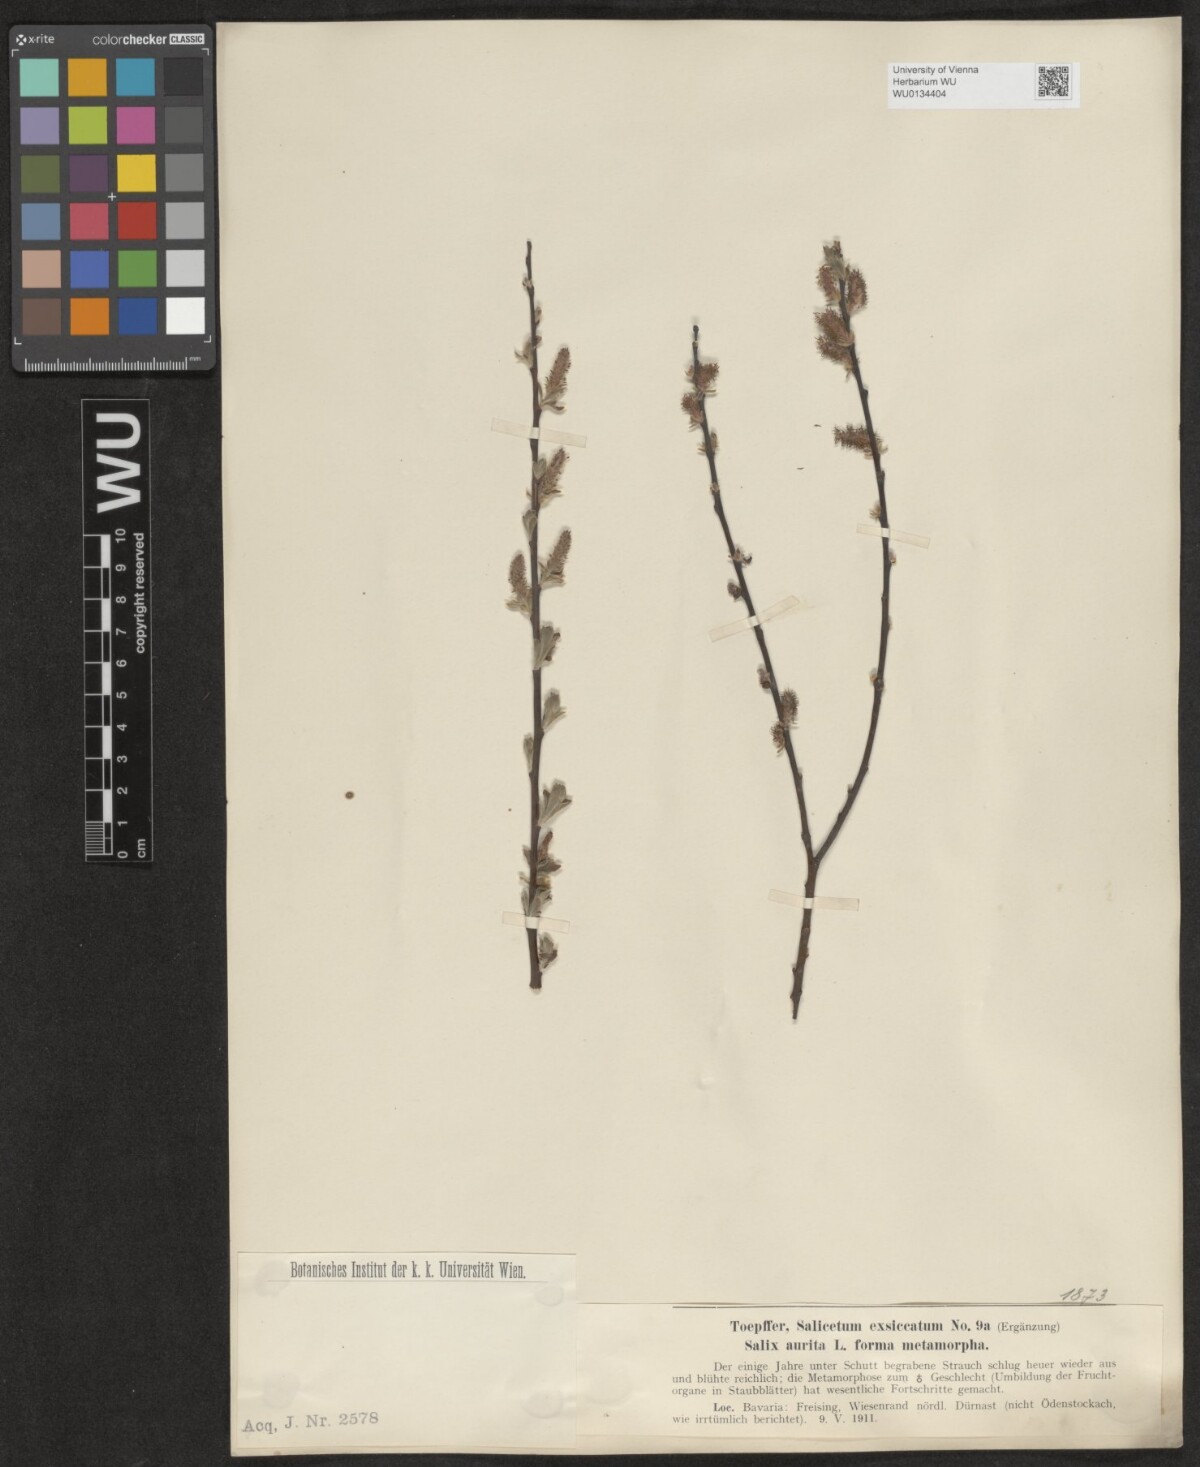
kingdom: Plantae
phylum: Tracheophyta
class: Magnoliopsida
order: Malpighiales
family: Salicaceae
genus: Salix
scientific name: Salix aurita
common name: Eared willow
